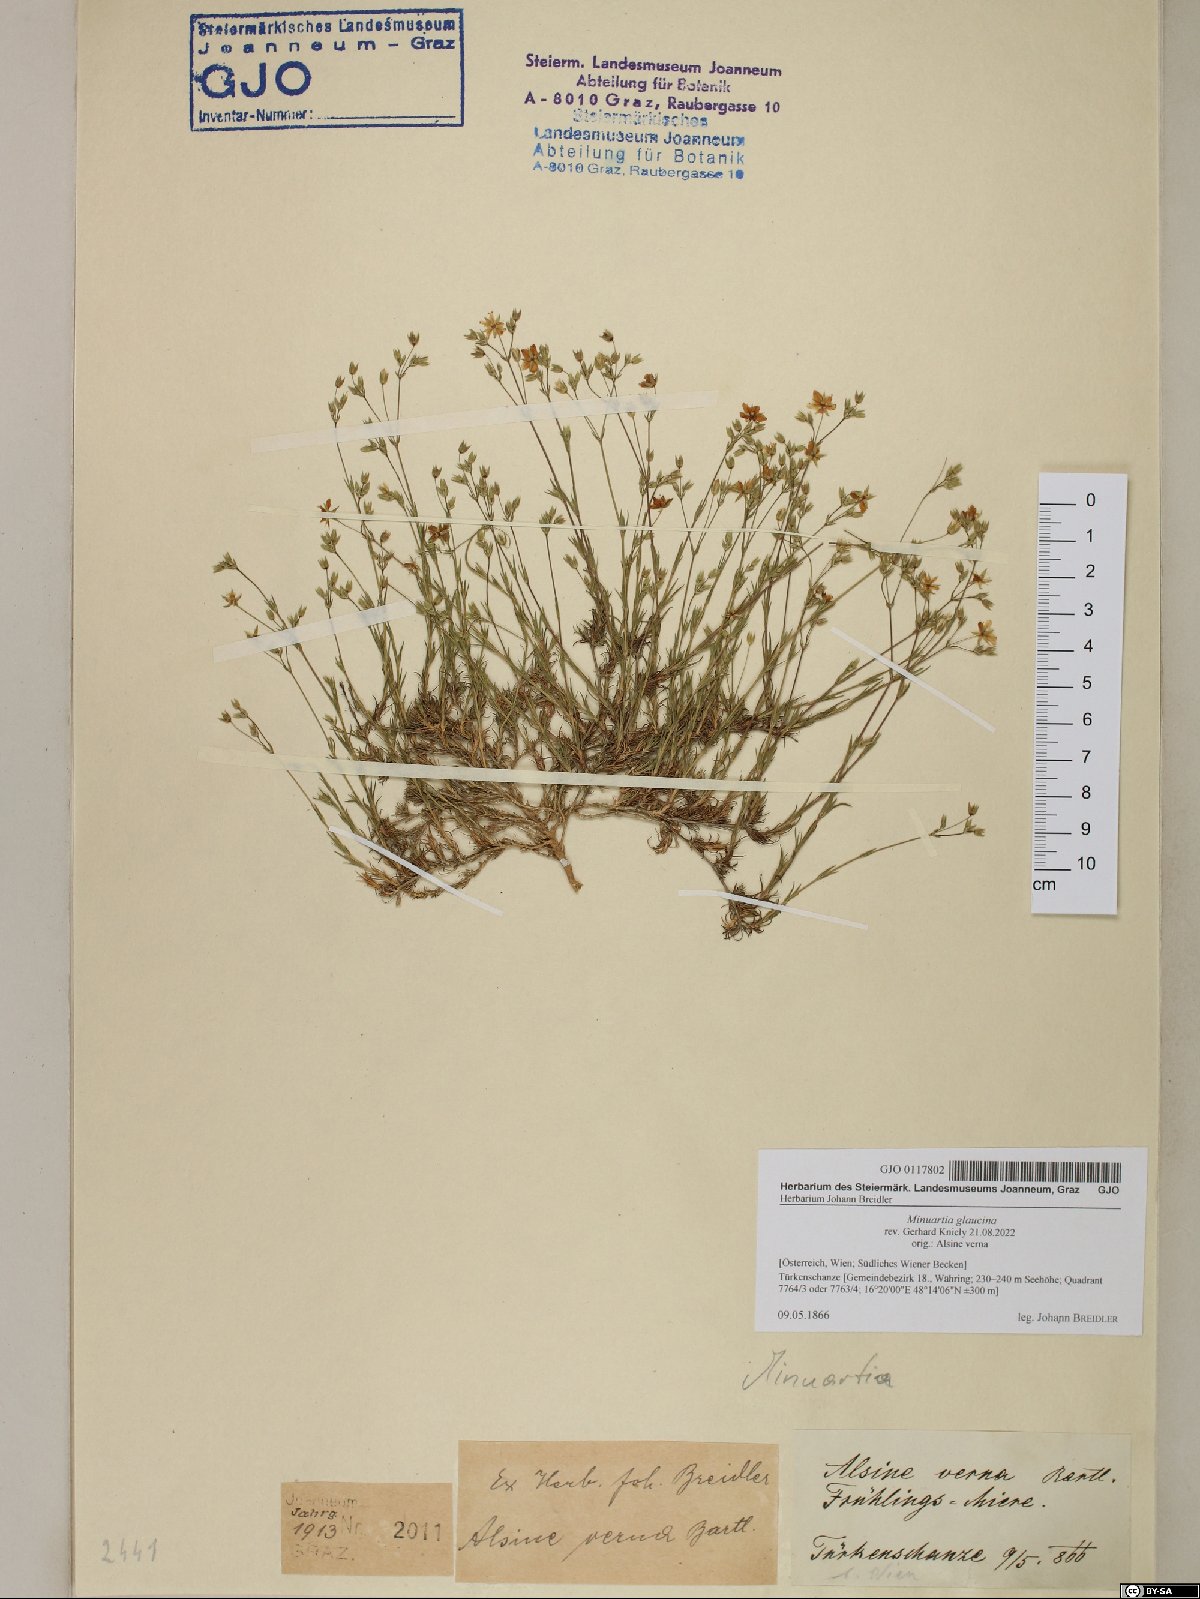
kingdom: Plantae
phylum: Tracheophyta
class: Magnoliopsida
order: Caryophyllales
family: Caryophyllaceae
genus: Sabulina
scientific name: Sabulina glaucina
